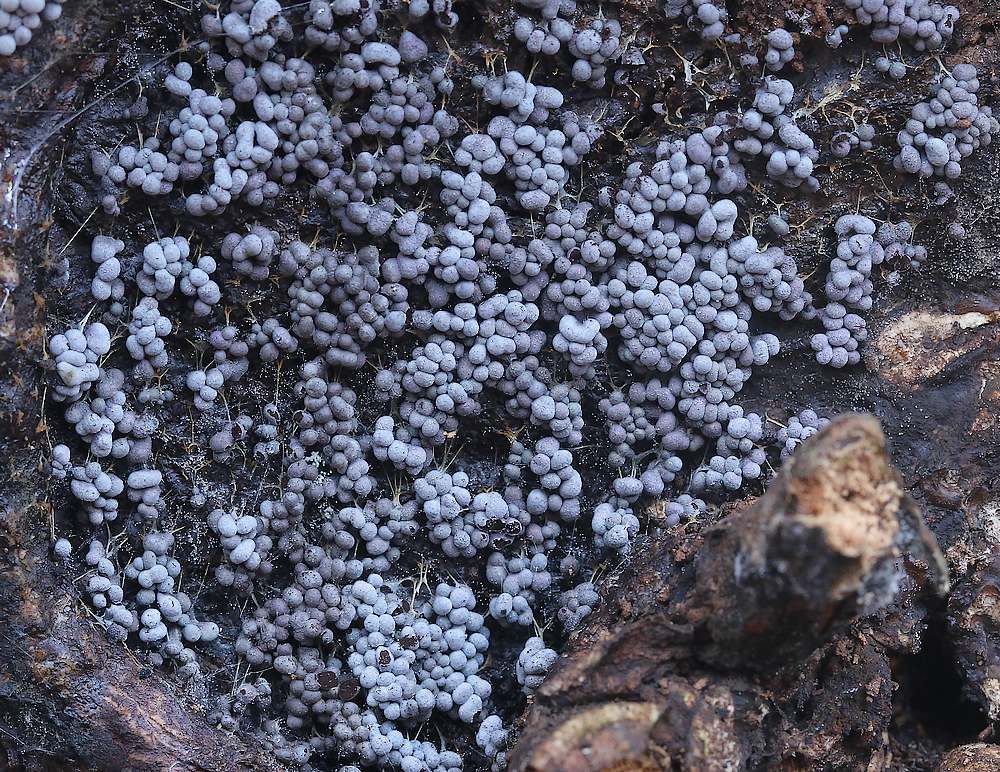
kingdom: Protozoa
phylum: Mycetozoa
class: Myxomycetes
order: Physarales
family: Physaraceae
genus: Badhamia
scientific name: Badhamia utricularis
